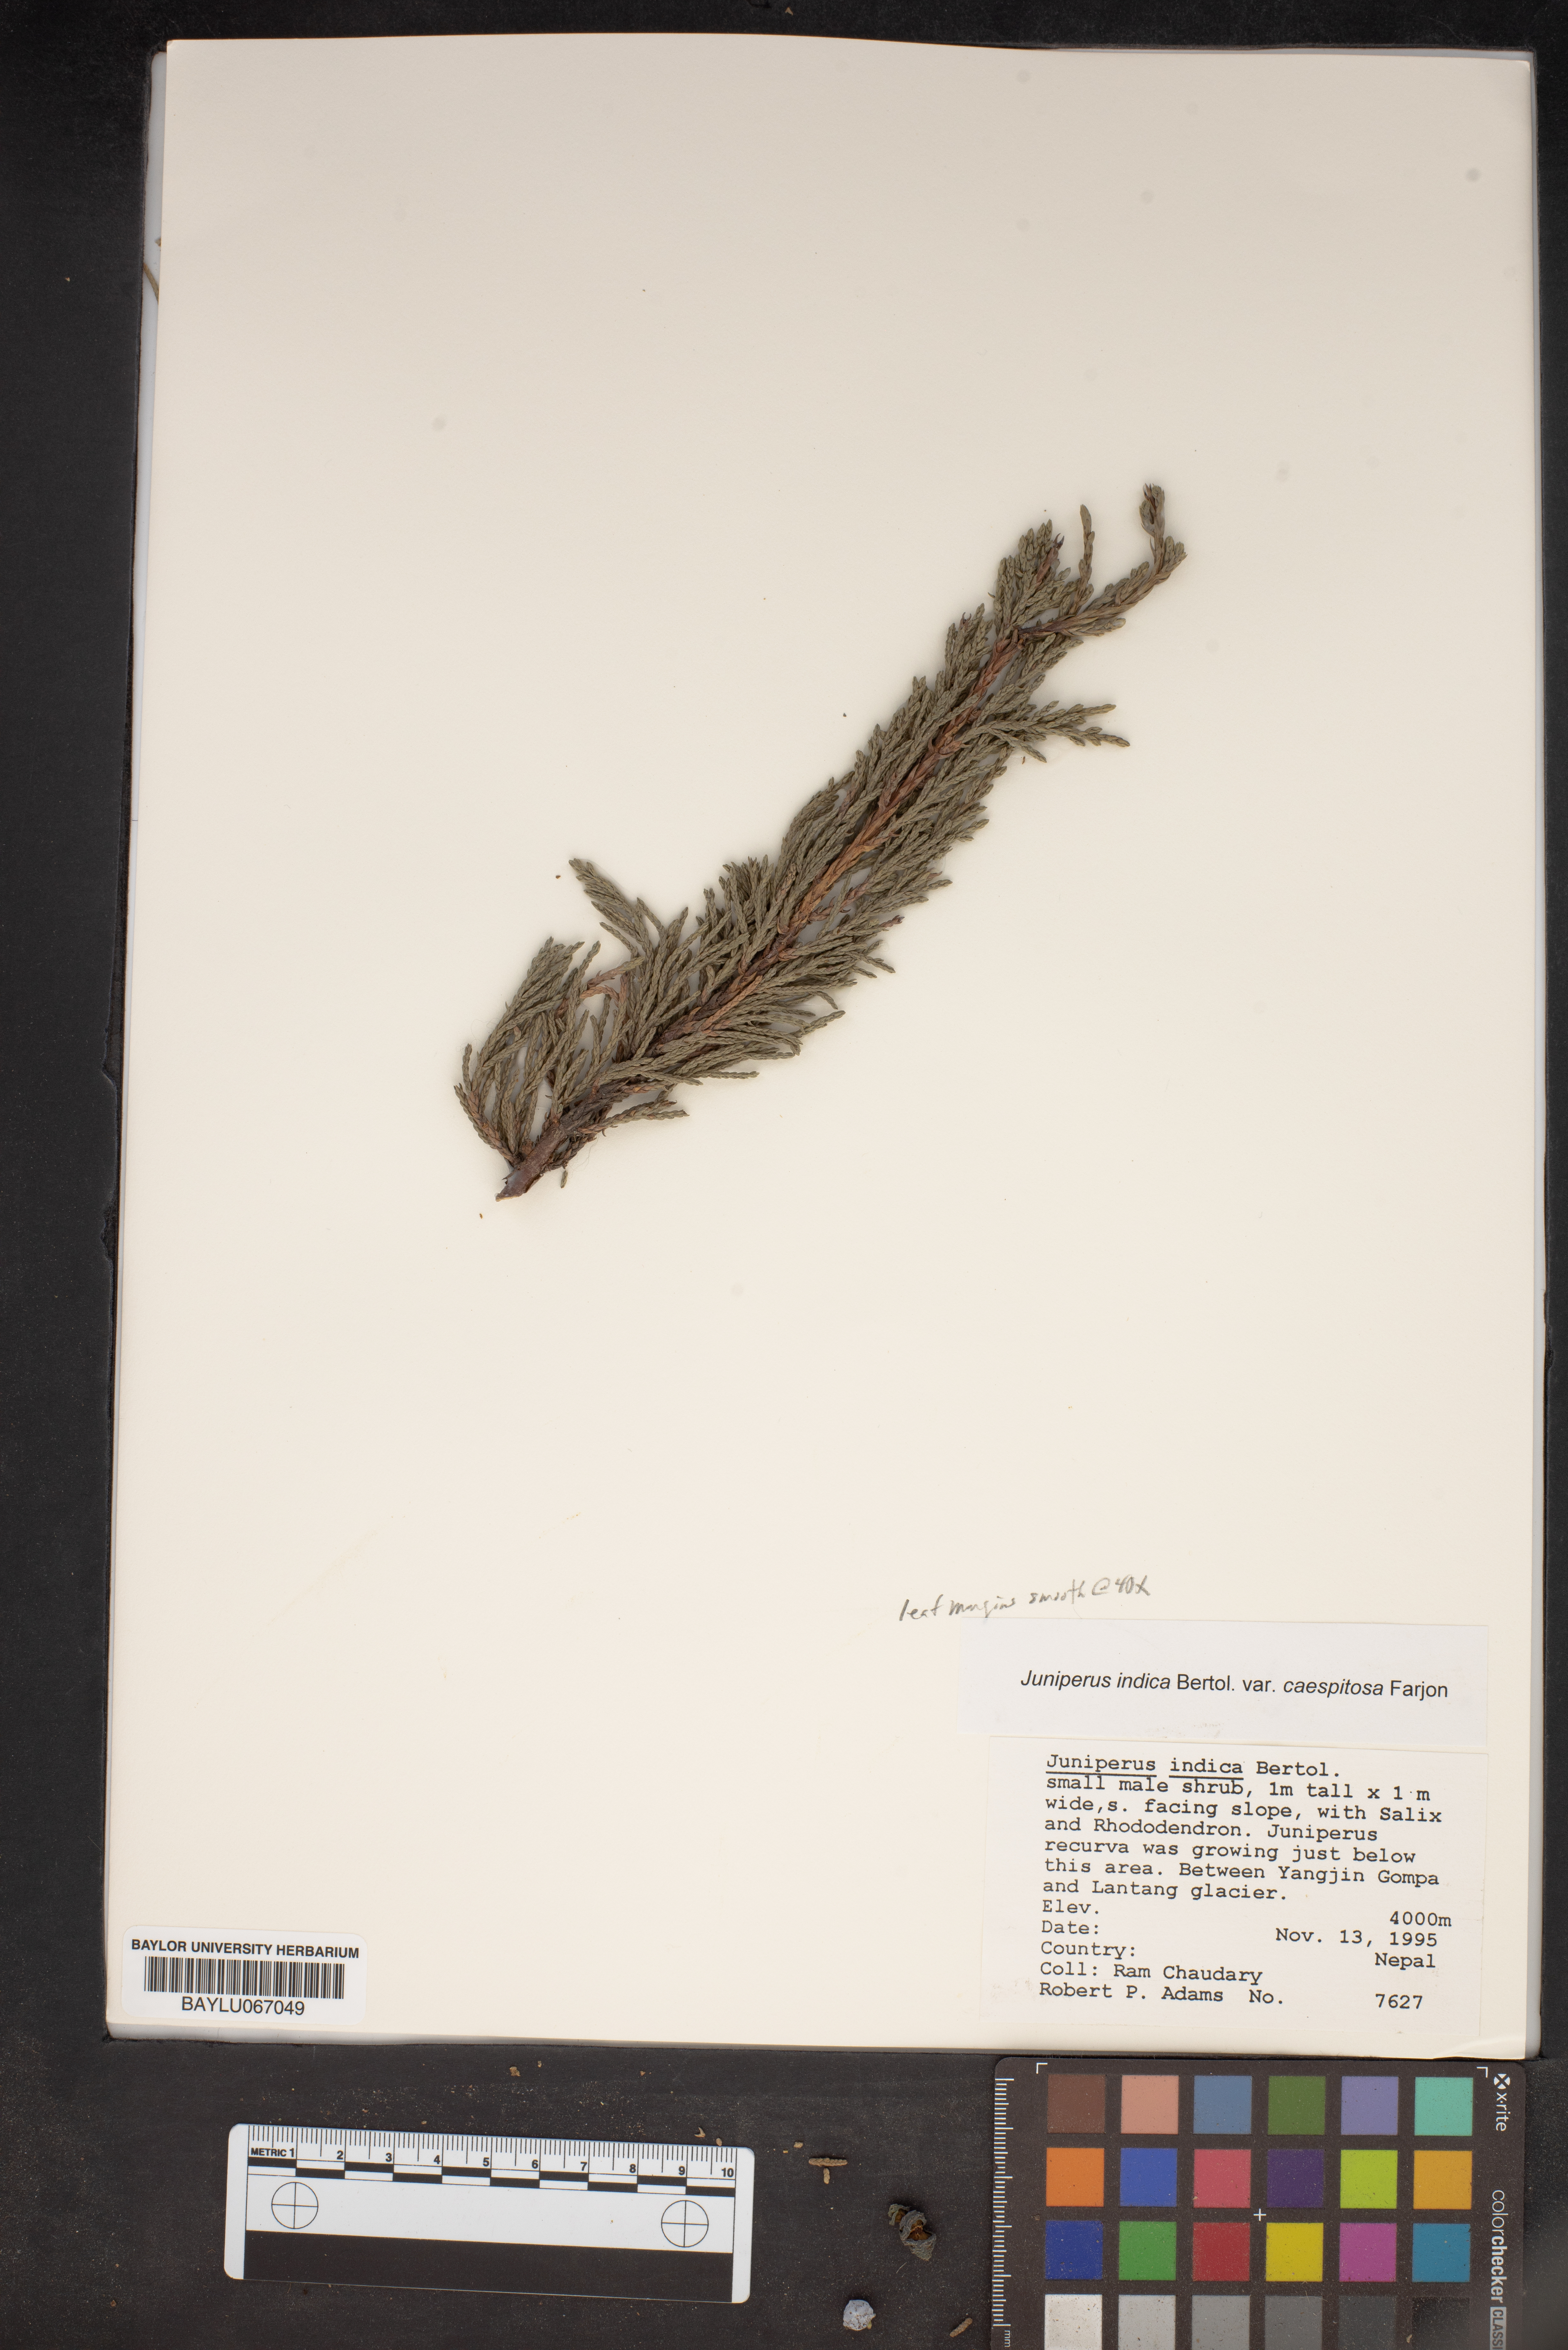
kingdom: Plantae
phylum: Tracheophyta
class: Pinopsida
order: Pinales
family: Cupressaceae
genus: Juniperus
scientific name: Juniperus indica
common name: Black juniper
